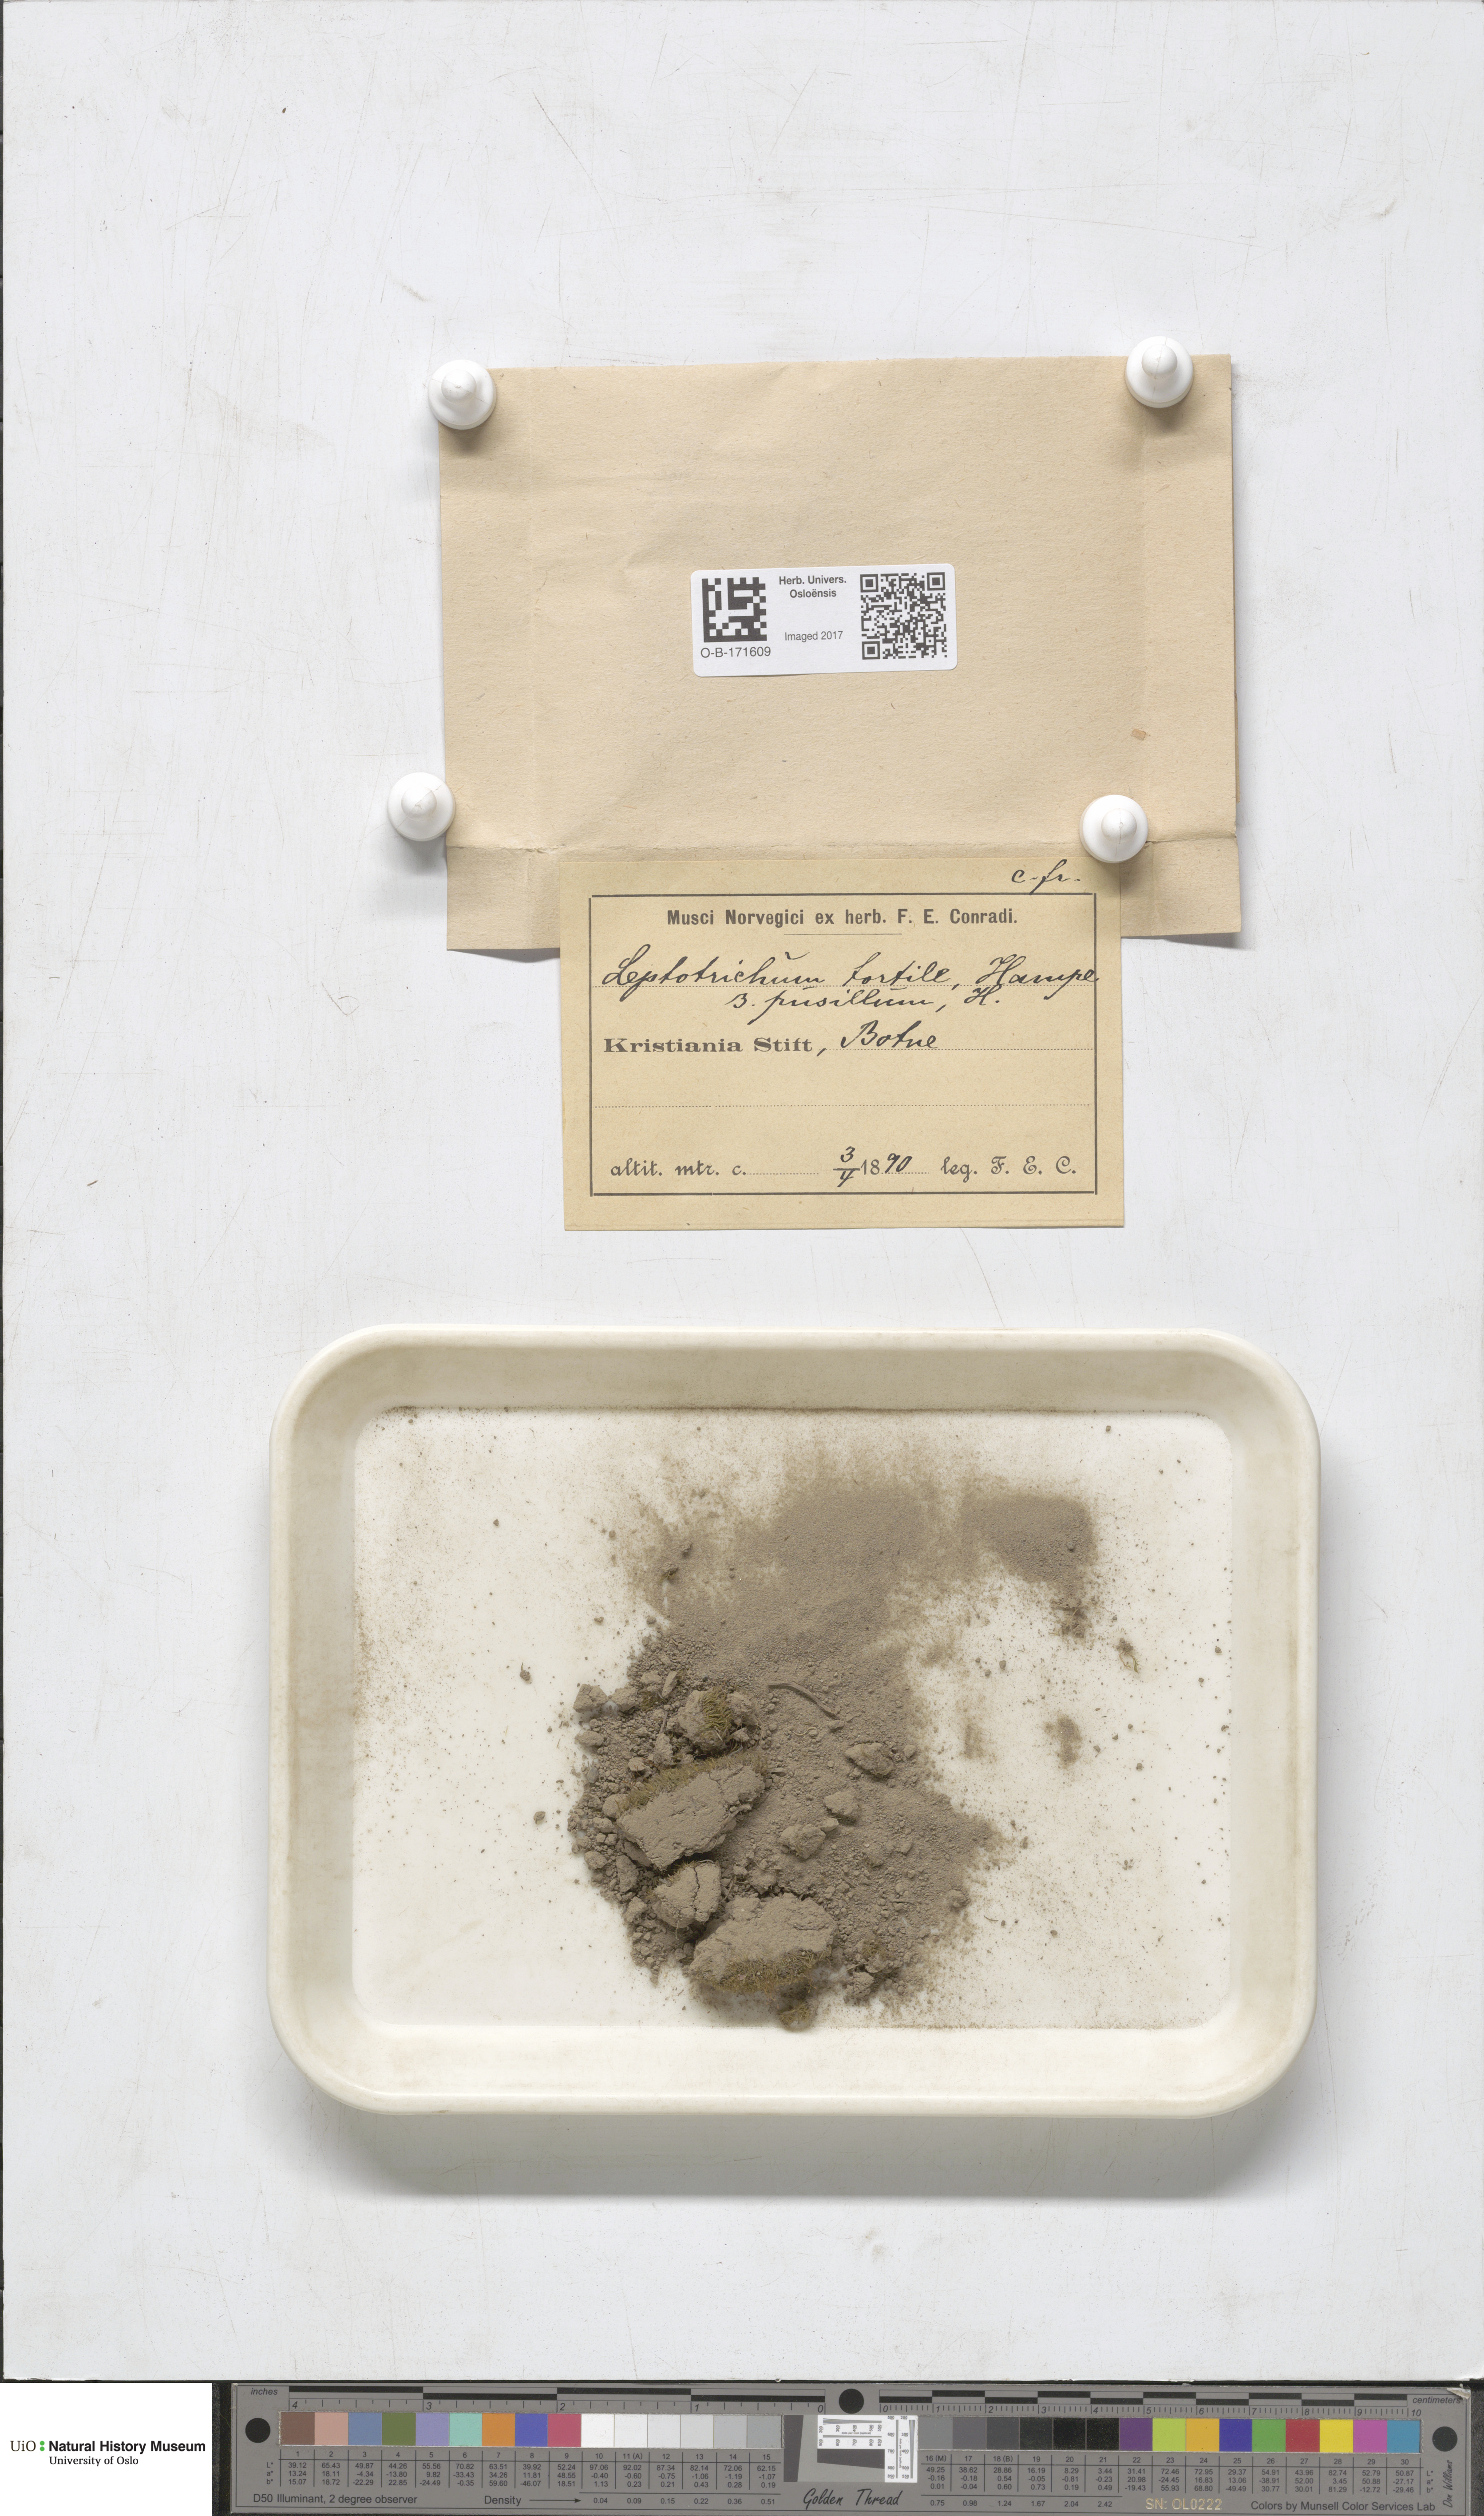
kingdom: Plantae
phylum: Bryophyta
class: Bryopsida
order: Dicranales
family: Ditrichaceae
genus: Ditrichum
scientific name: Ditrichum pusillum
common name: Brown cow-hair moss
